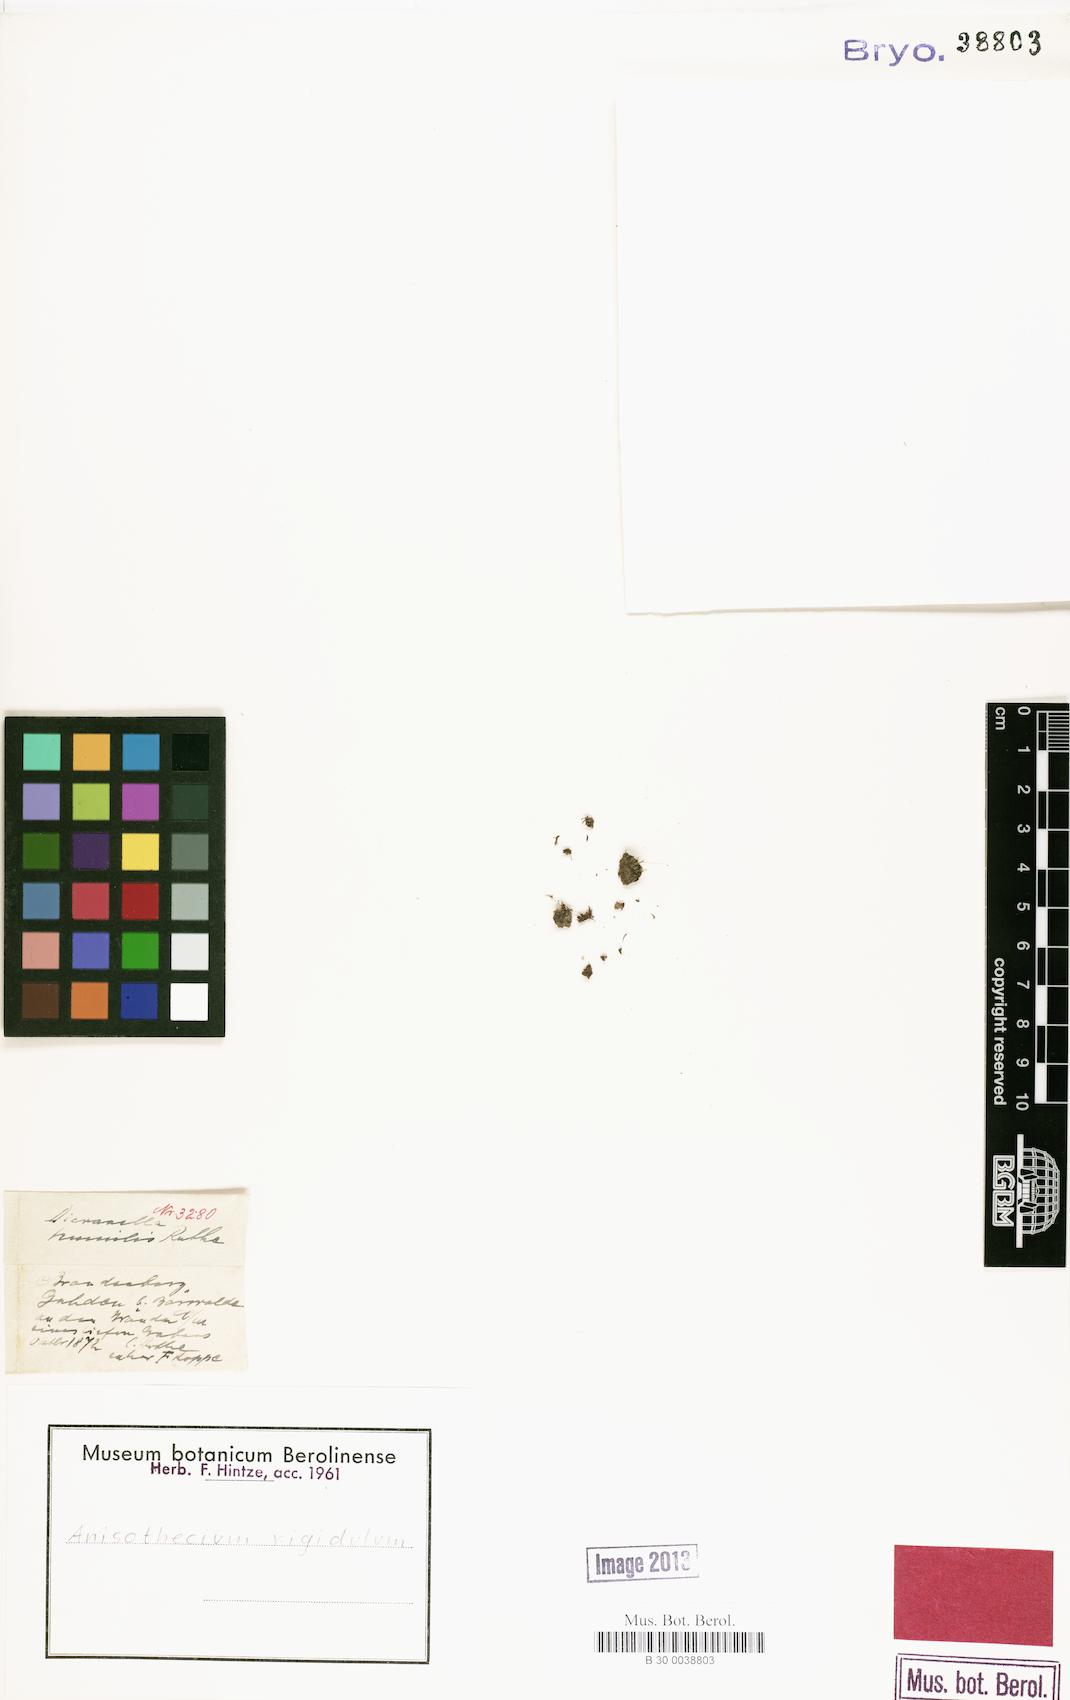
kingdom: Plantae
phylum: Bryophyta
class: Bryopsida
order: Dicranales
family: Dicranellaceae
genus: Dicranella
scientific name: Dicranella humilis
